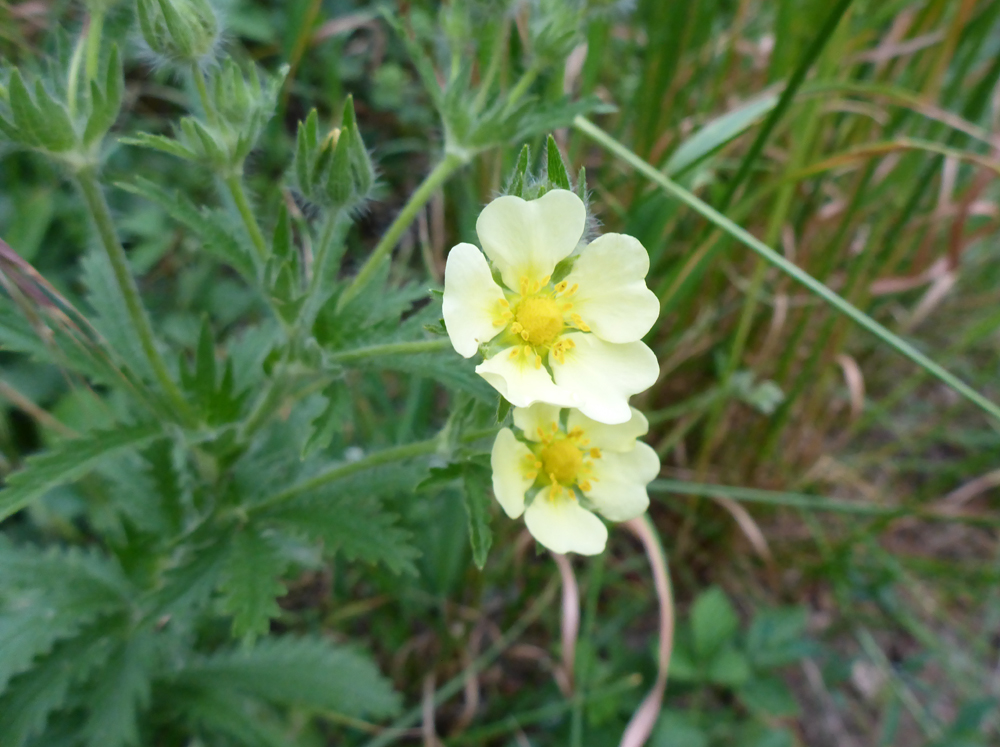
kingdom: Plantae
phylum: Tracheophyta
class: Magnoliopsida
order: Rosales
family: Rosaceae
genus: Potentilla
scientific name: Potentilla recta
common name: Sulphur cinquefoil
